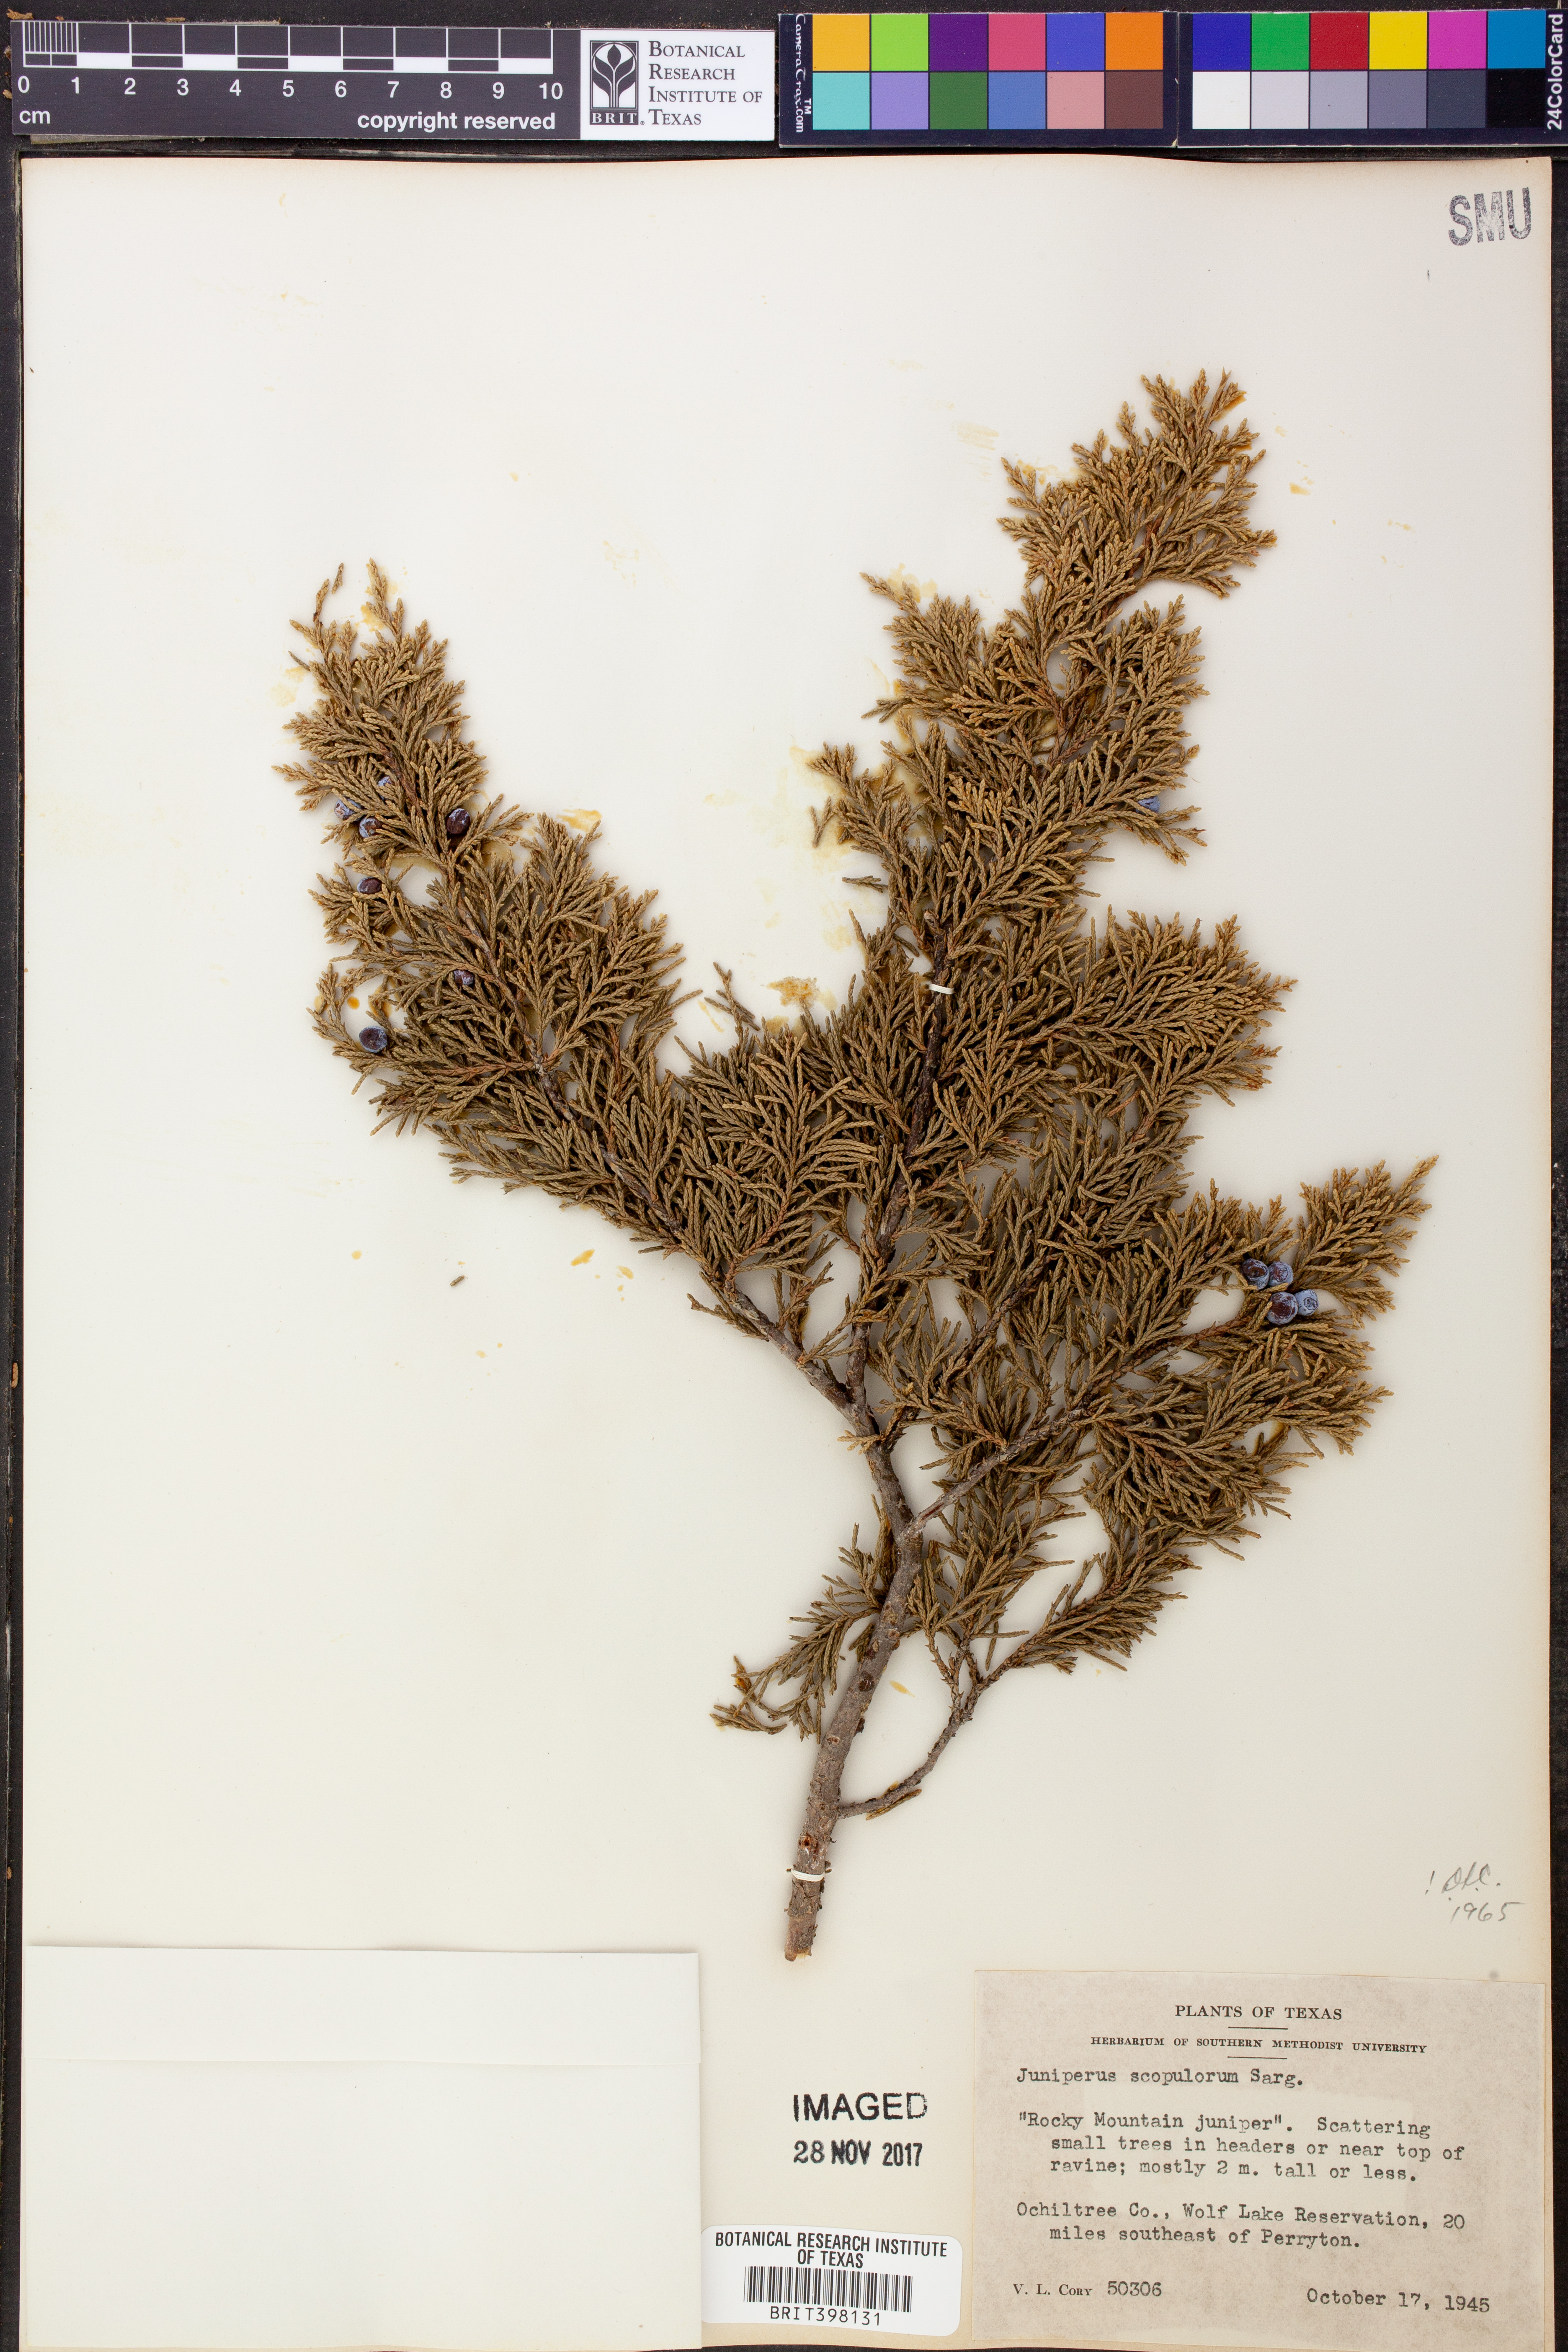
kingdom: Plantae
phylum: Tracheophyta
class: Pinopsida
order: Pinales
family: Cupressaceae
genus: Juniperus
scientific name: Juniperus scopulorum
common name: Rocky mountain juniper
